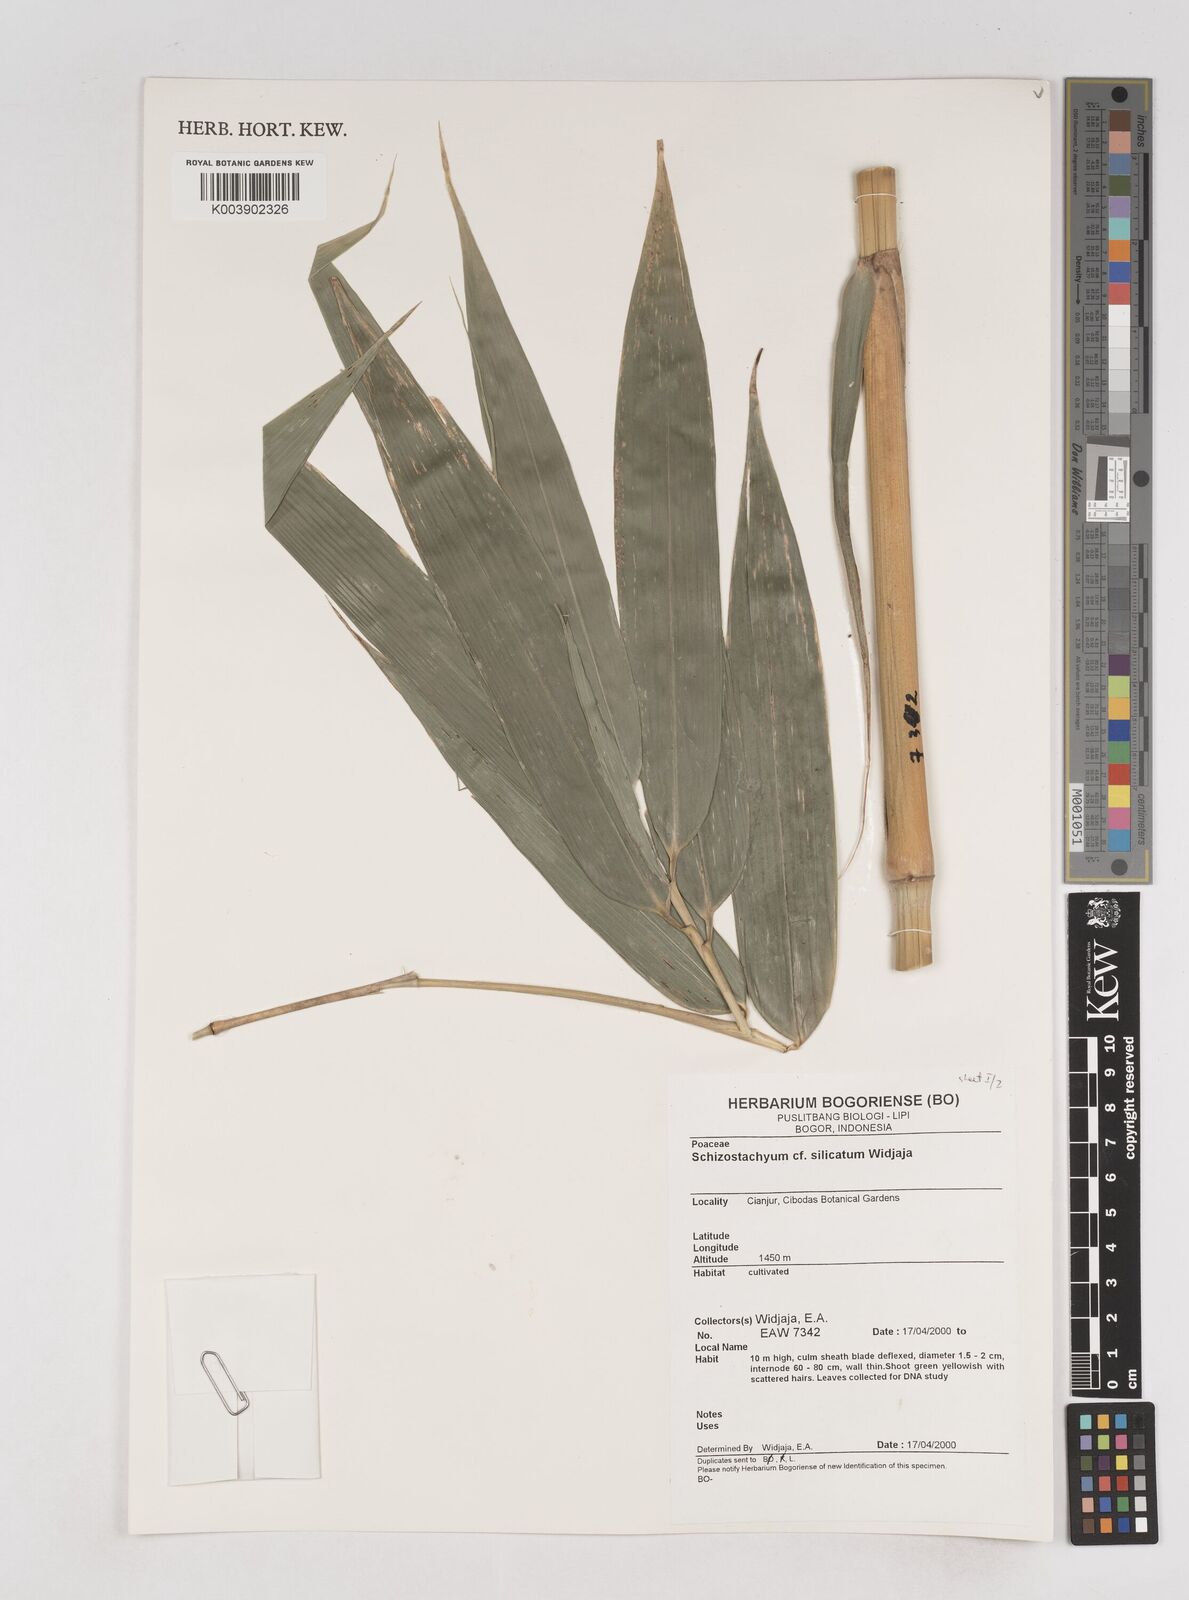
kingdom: Plantae
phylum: Tracheophyta
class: Liliopsida
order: Poales
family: Poaceae
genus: Schizostachyum
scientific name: Schizostachyum silicatum
